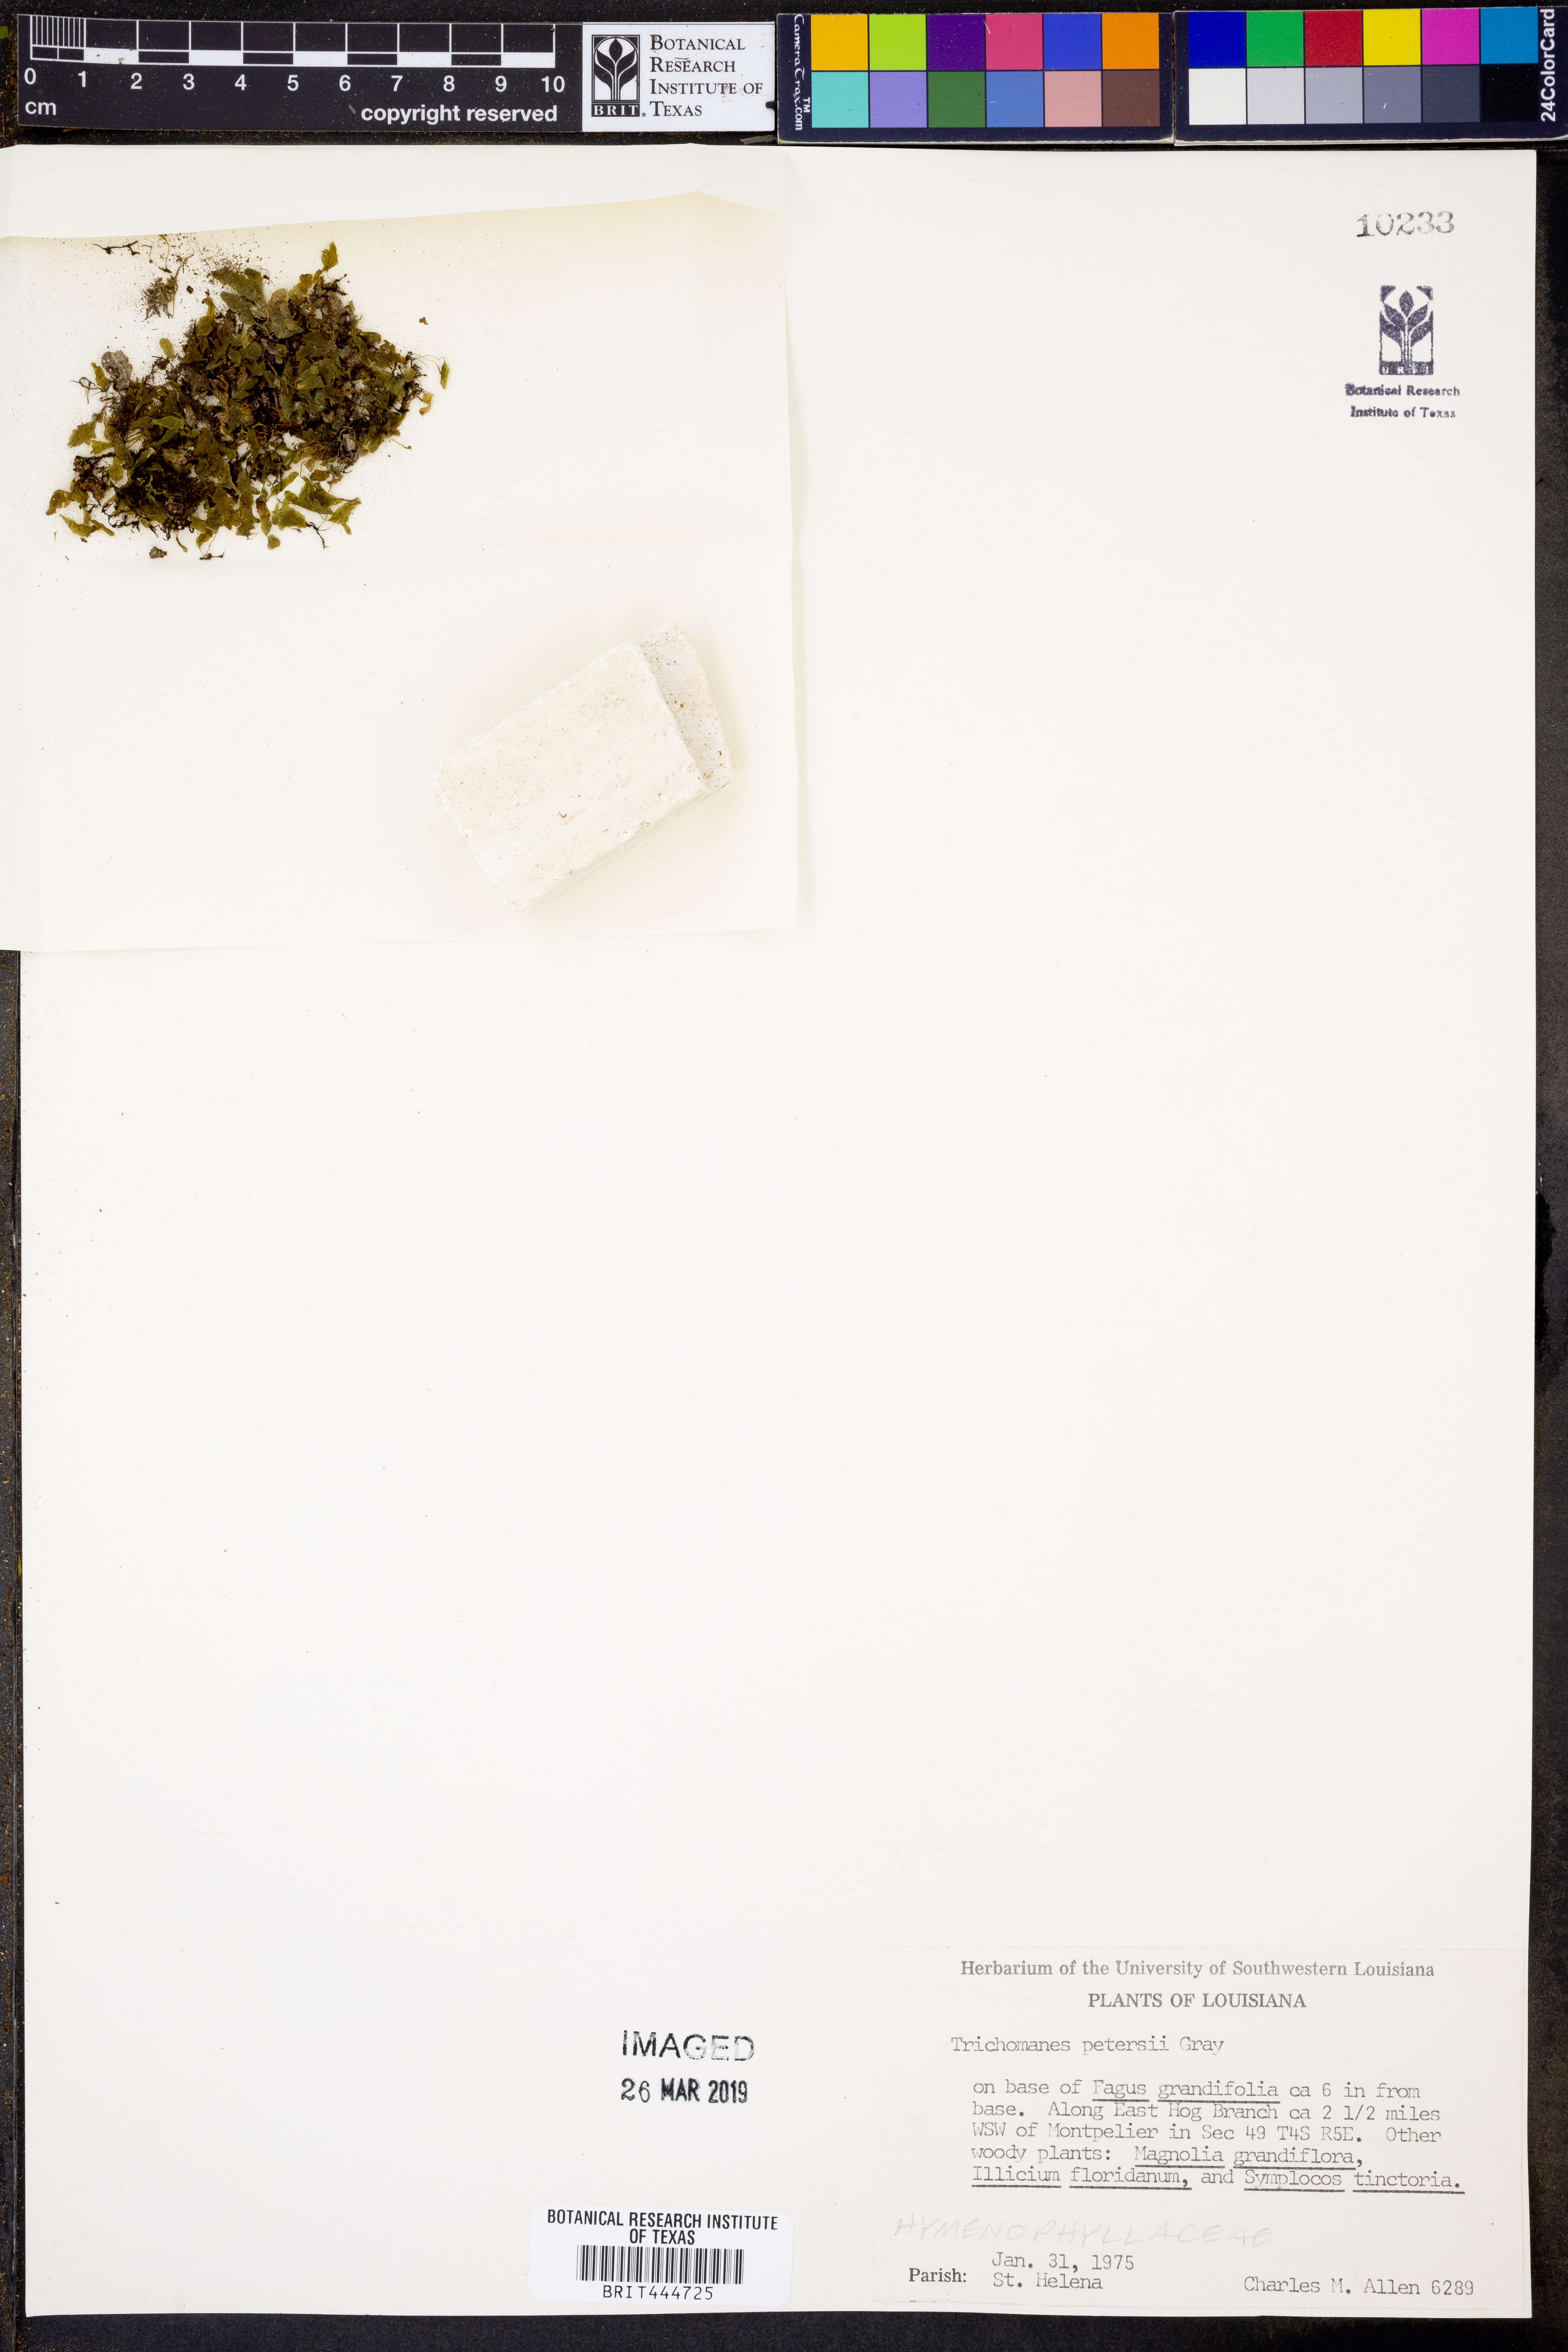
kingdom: Plantae
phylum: Tracheophyta
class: Polypodiopsida
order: Hymenophyllales
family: Hymenophyllaceae
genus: Didymoglossum
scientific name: Didymoglossum petersii
